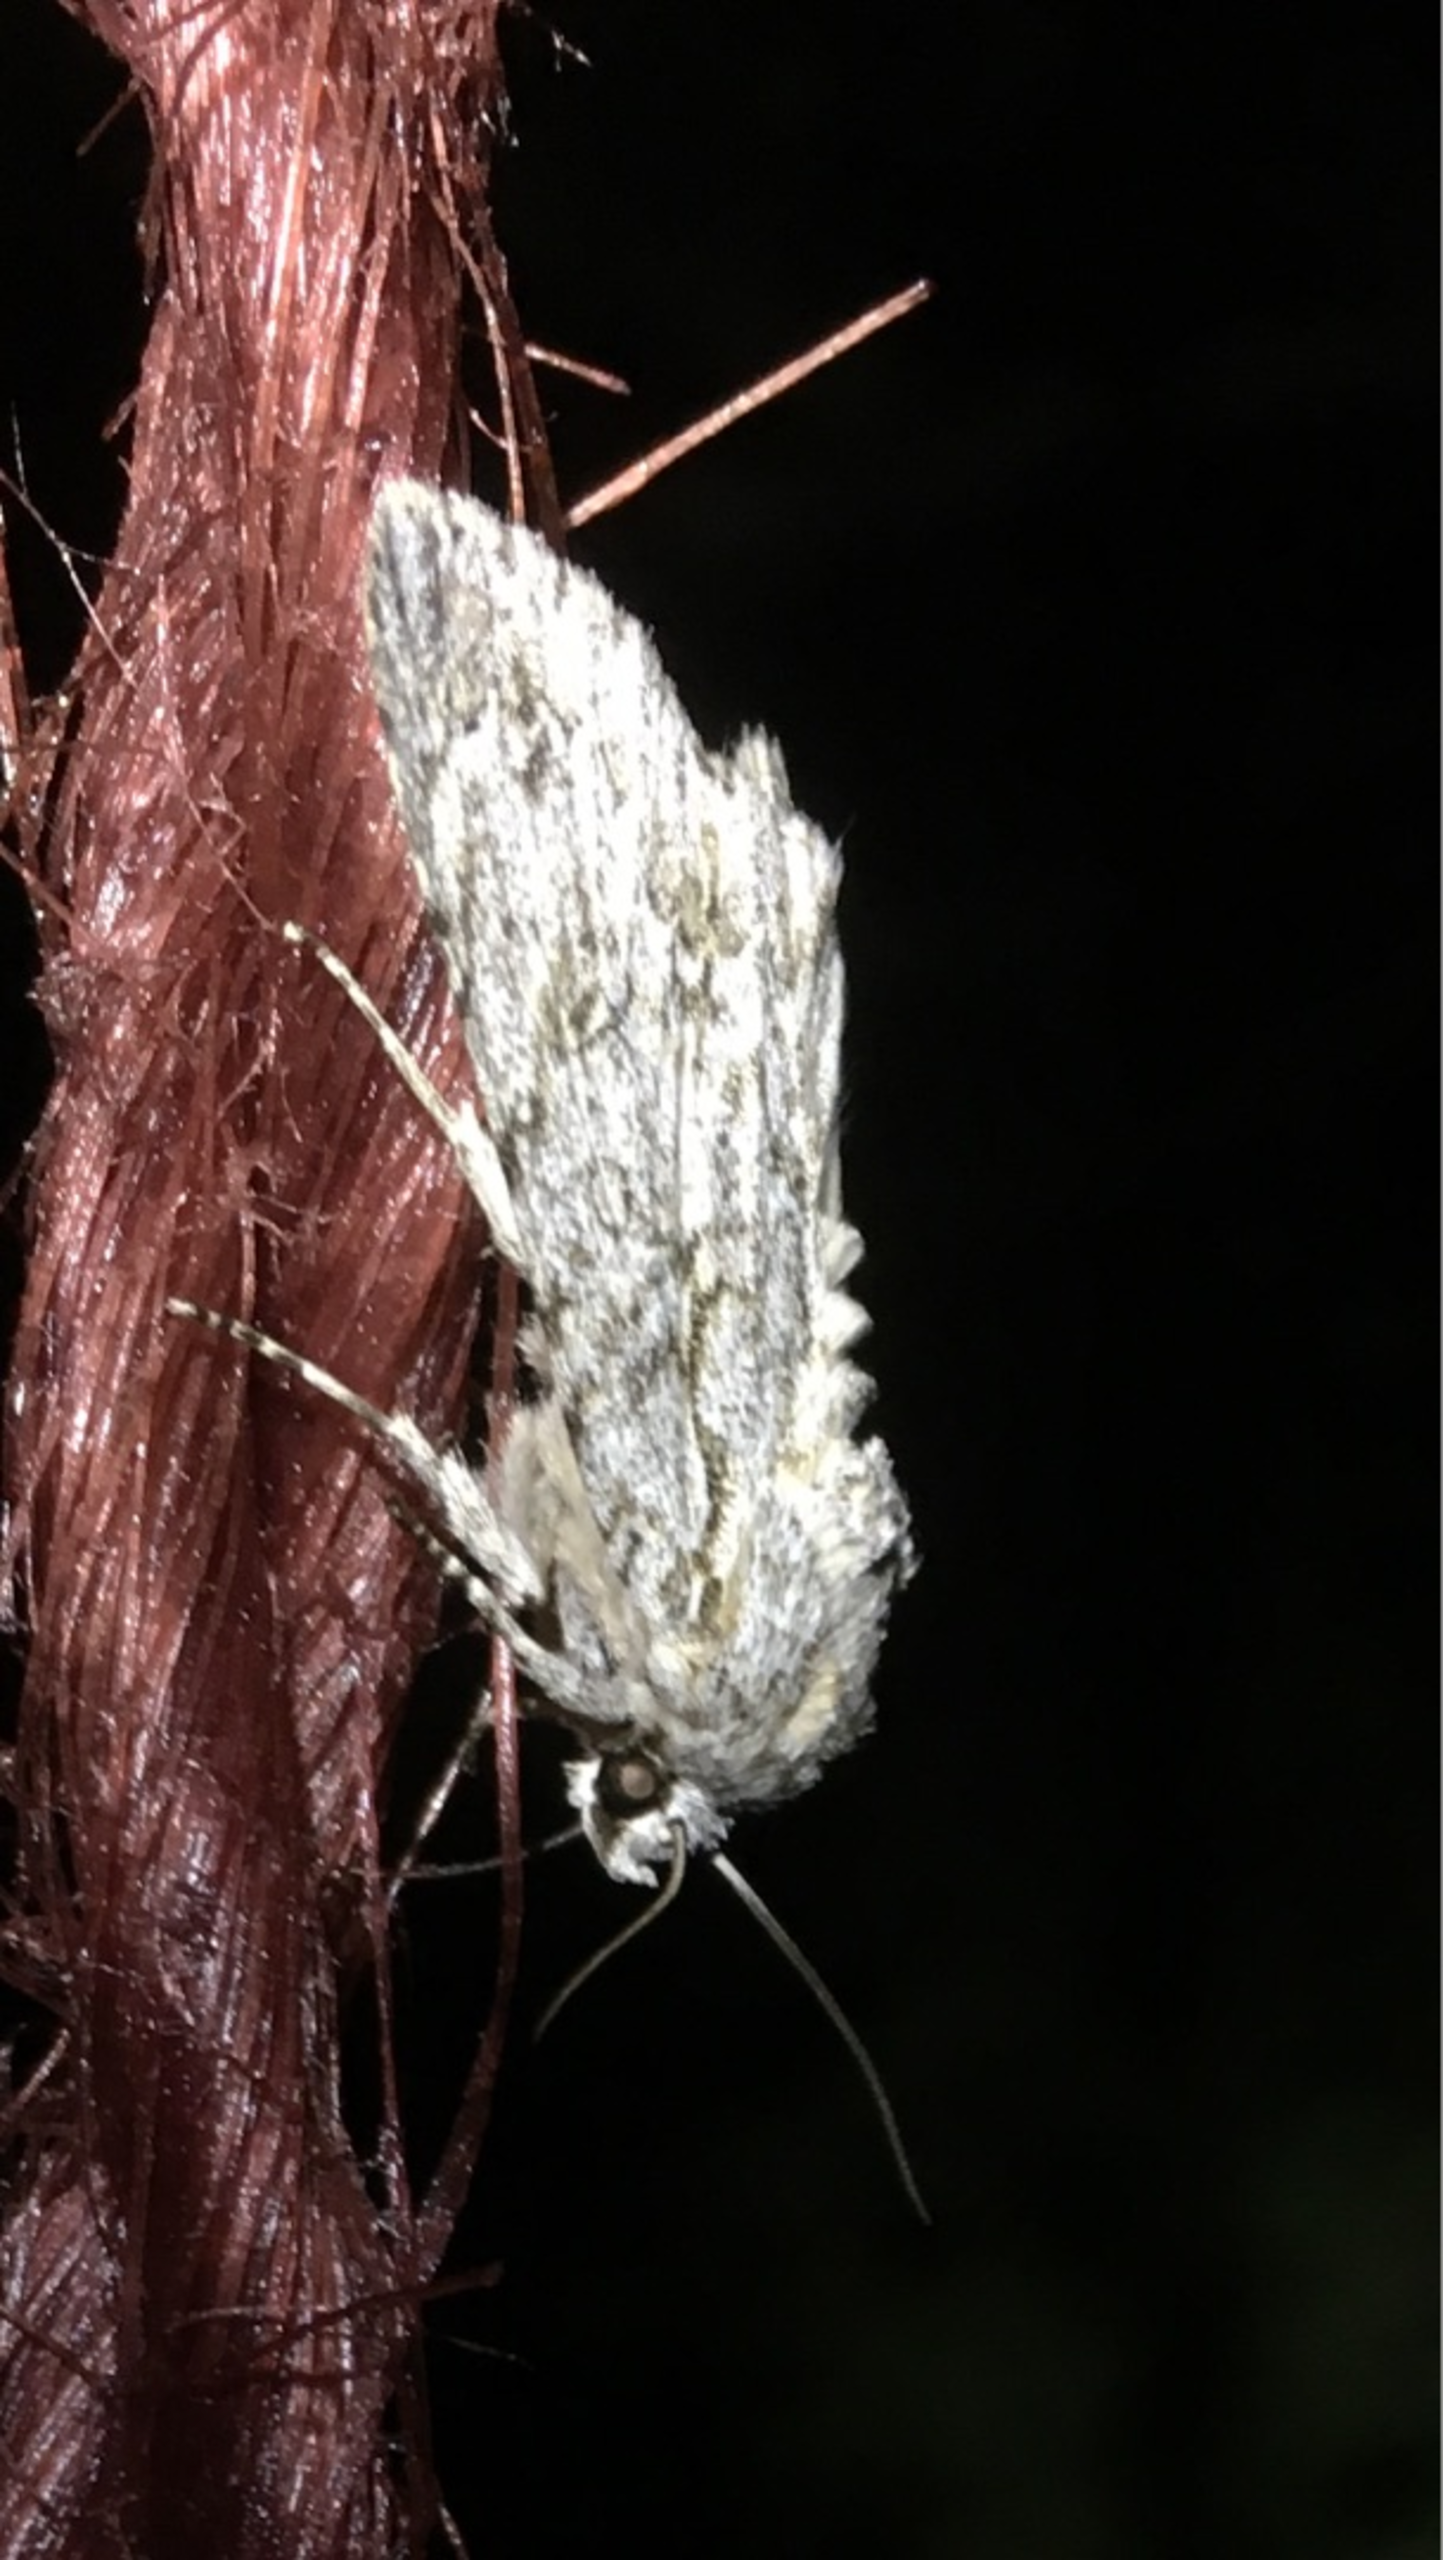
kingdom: Animalia
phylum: Arthropoda
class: Insecta
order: Lepidoptera
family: Noctuidae
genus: Acronicta
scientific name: Acronicta aceris
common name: Ahornugle
